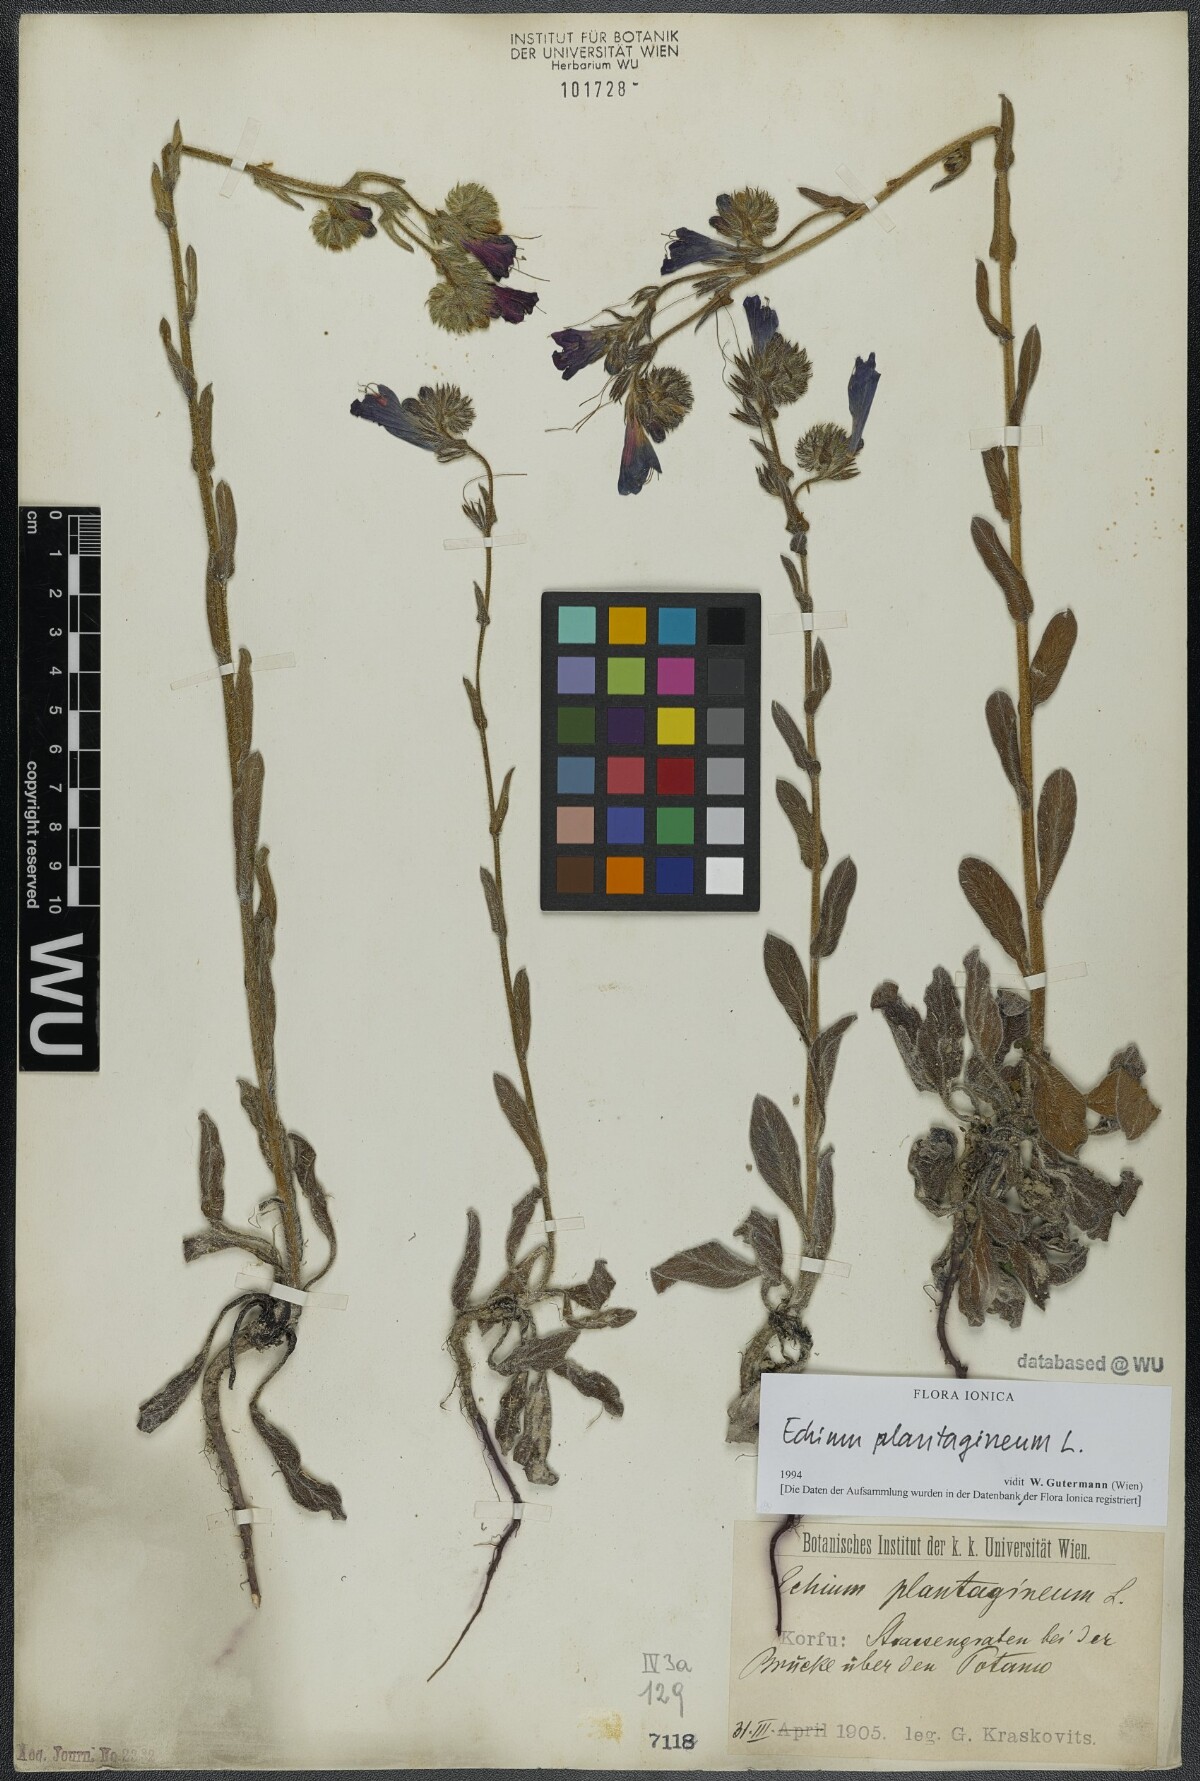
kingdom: Plantae
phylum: Tracheophyta
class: Magnoliopsida
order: Boraginales
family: Boraginaceae
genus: Echium
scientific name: Echium plantagineum
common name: Purple viper's-bugloss
